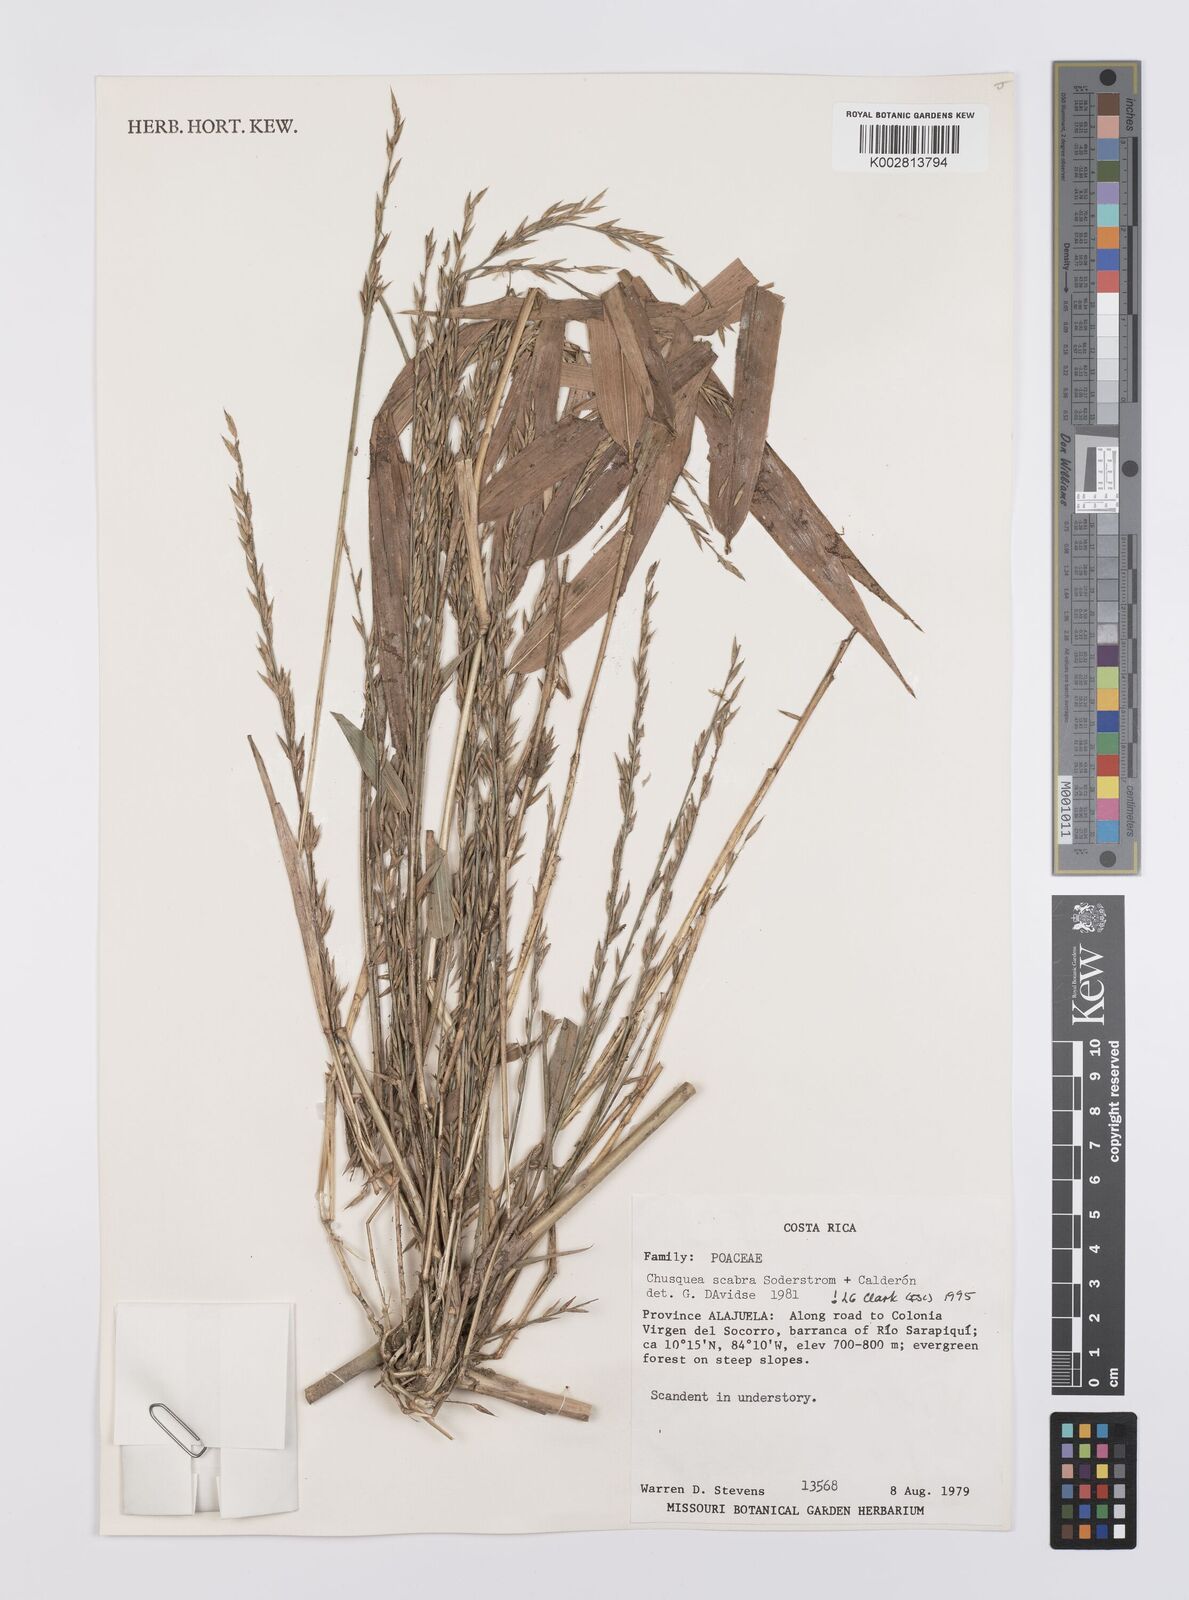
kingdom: Plantae
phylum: Tracheophyta
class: Liliopsida
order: Poales
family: Poaceae
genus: Chusquea
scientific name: Chusquea scabra
